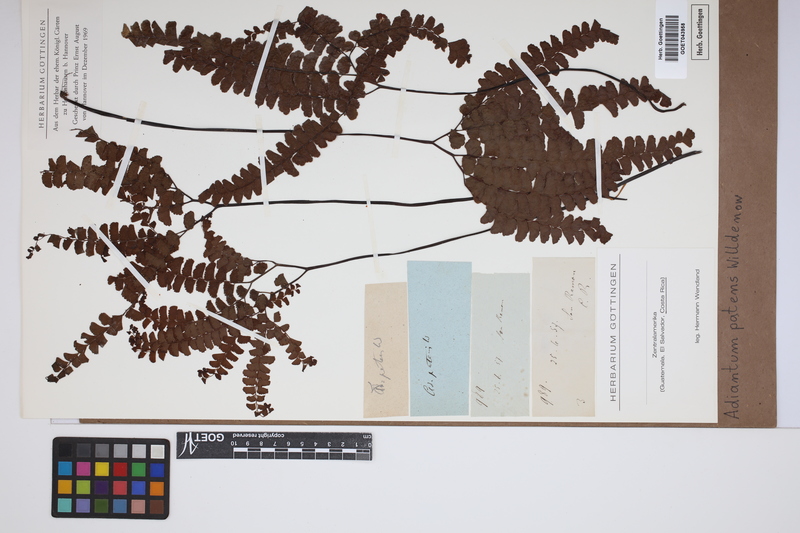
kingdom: Plantae
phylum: Tracheophyta
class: Polypodiopsida
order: Polypodiales
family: Pteridaceae
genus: Adiantum
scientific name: Adiantum patens
